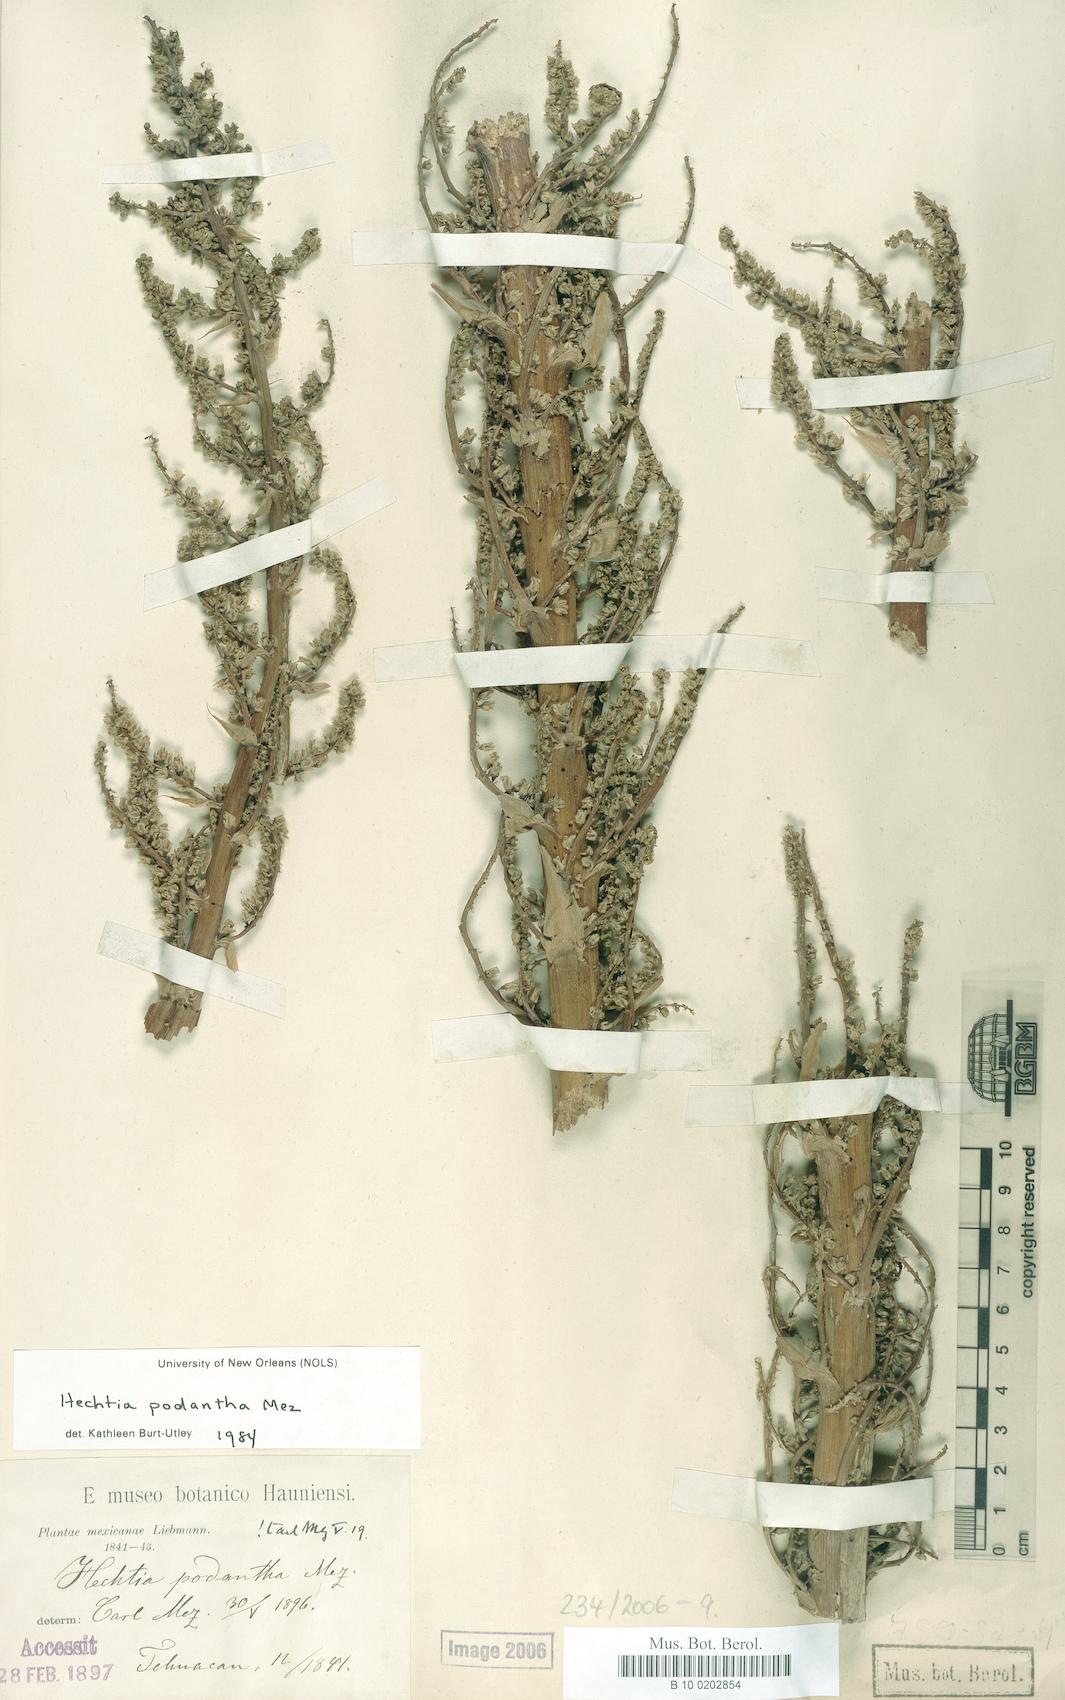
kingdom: Plantae
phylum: Tracheophyta
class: Liliopsida
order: Poales
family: Bromeliaceae
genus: Hechtia
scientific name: Hechtia liebmannii
